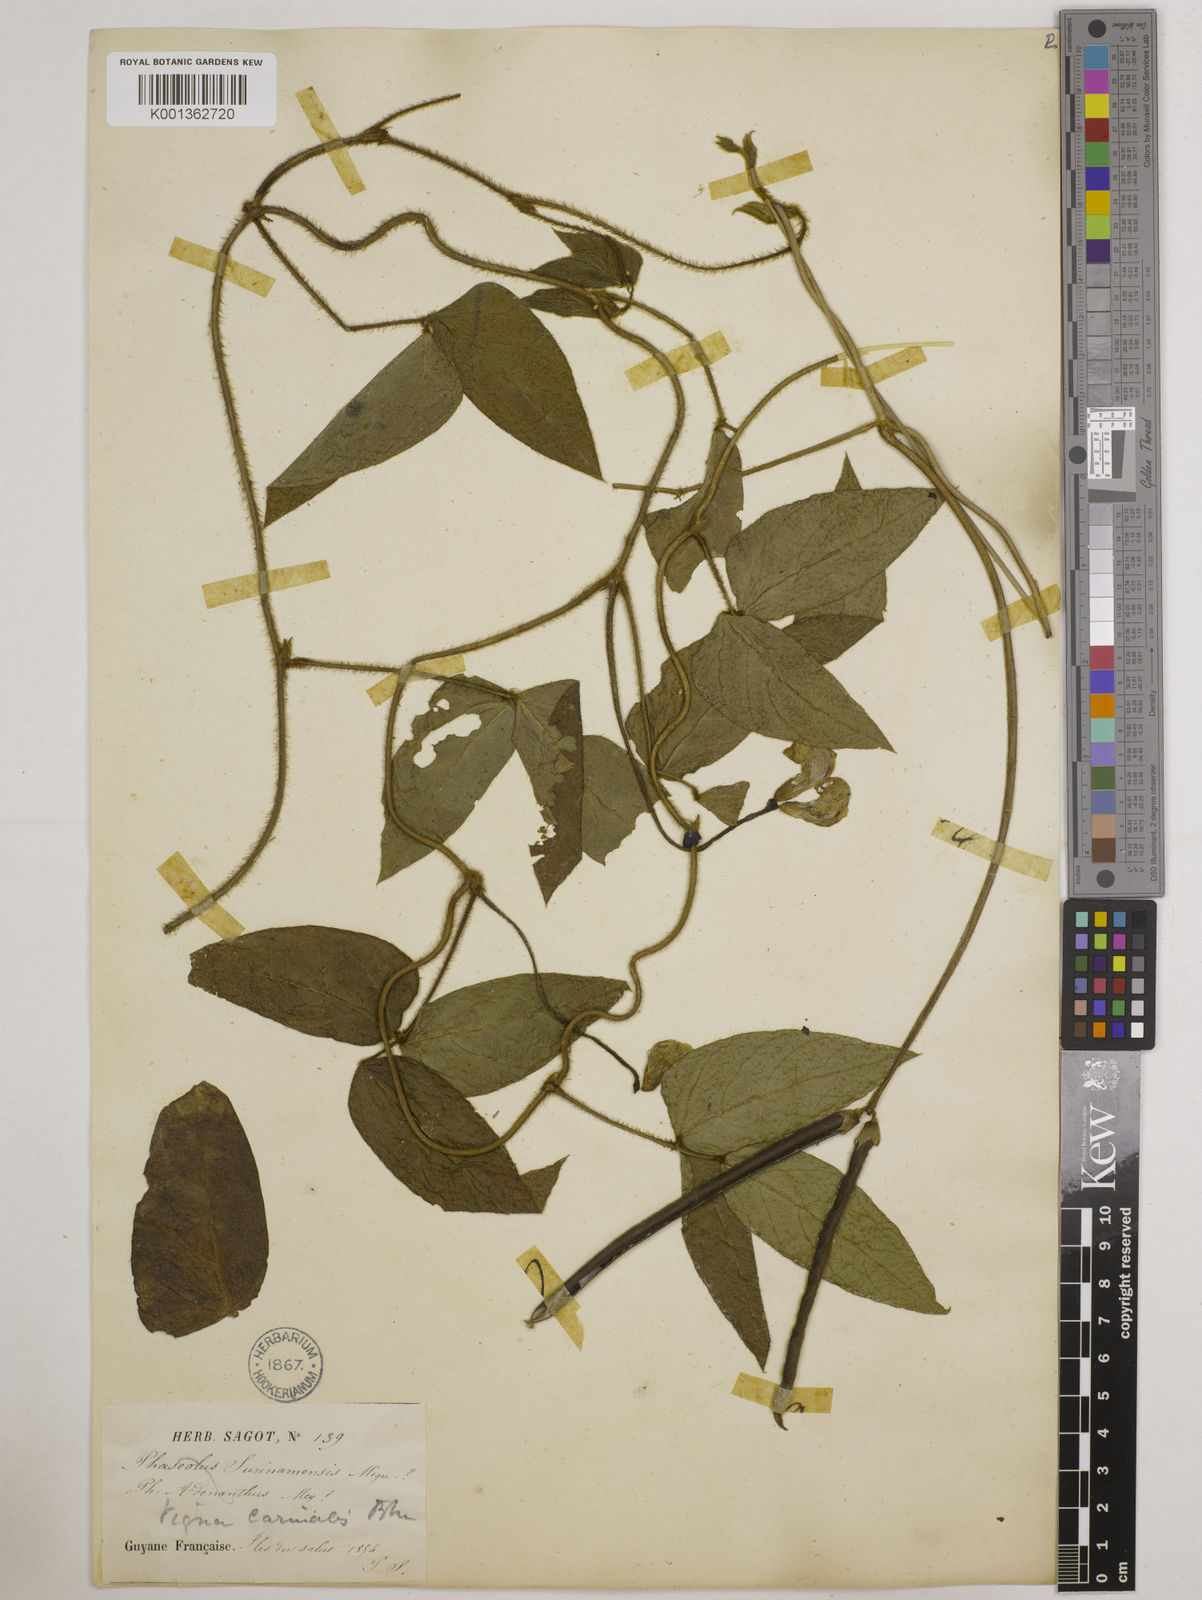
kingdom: Plantae
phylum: Tracheophyta
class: Magnoliopsida
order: Fabales
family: Fabaceae
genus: Vigna
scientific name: Vigna vexillata
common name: Zombi pea
